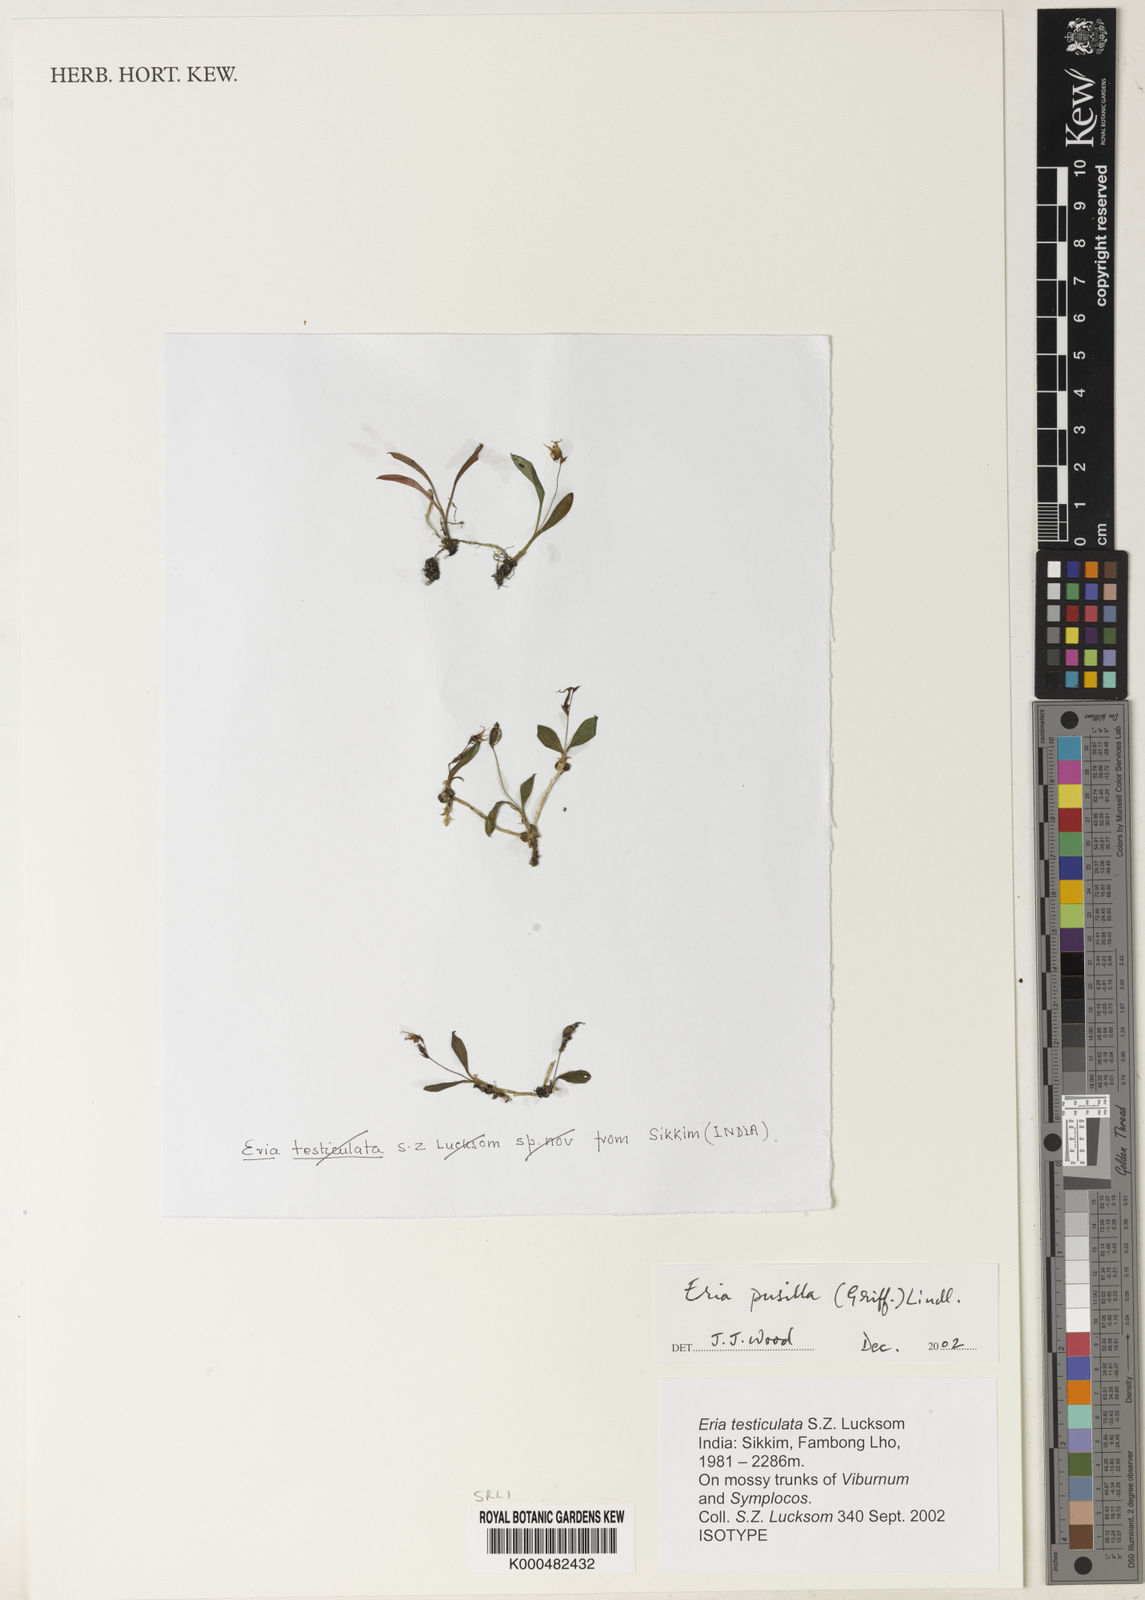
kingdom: Plantae
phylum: Tracheophyta
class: Liliopsida
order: Asparagales
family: Orchidaceae
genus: Porpax
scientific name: Porpax pusilla
